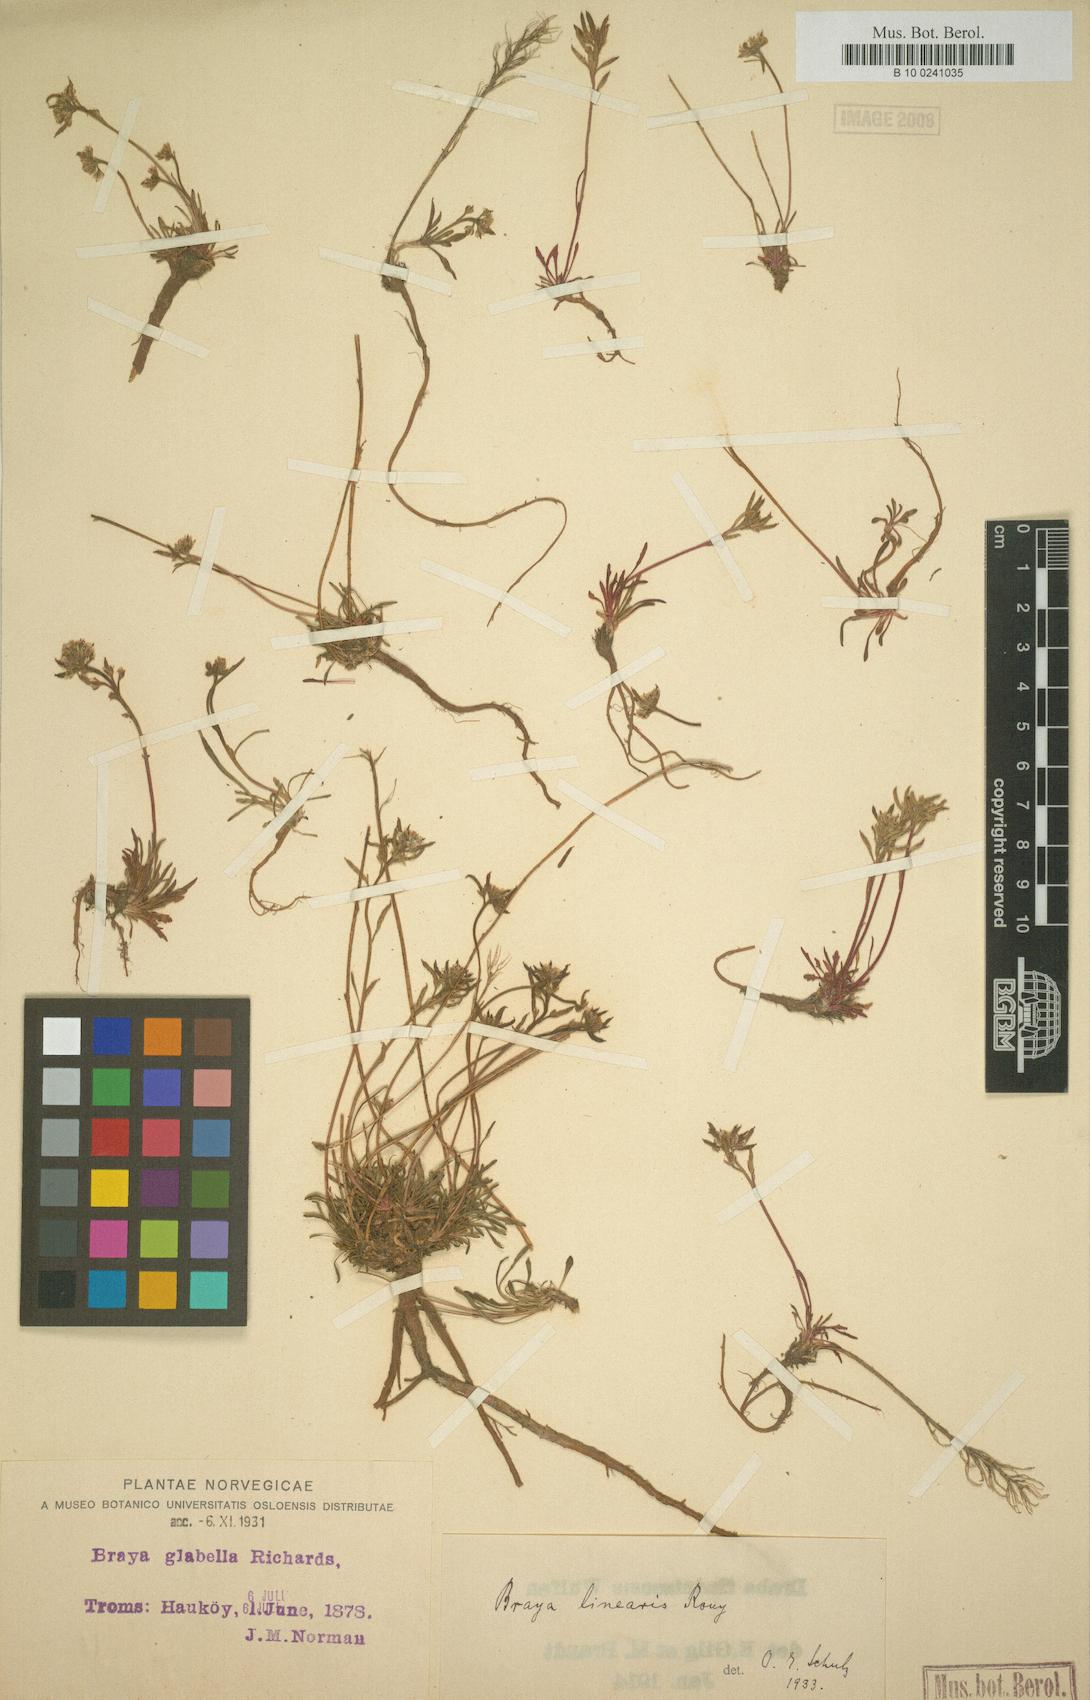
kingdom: Plantae
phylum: Tracheophyta
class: Magnoliopsida
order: Brassicales
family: Brassicaceae
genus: Braya
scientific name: Braya linearis
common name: Narrow-fruit braya
